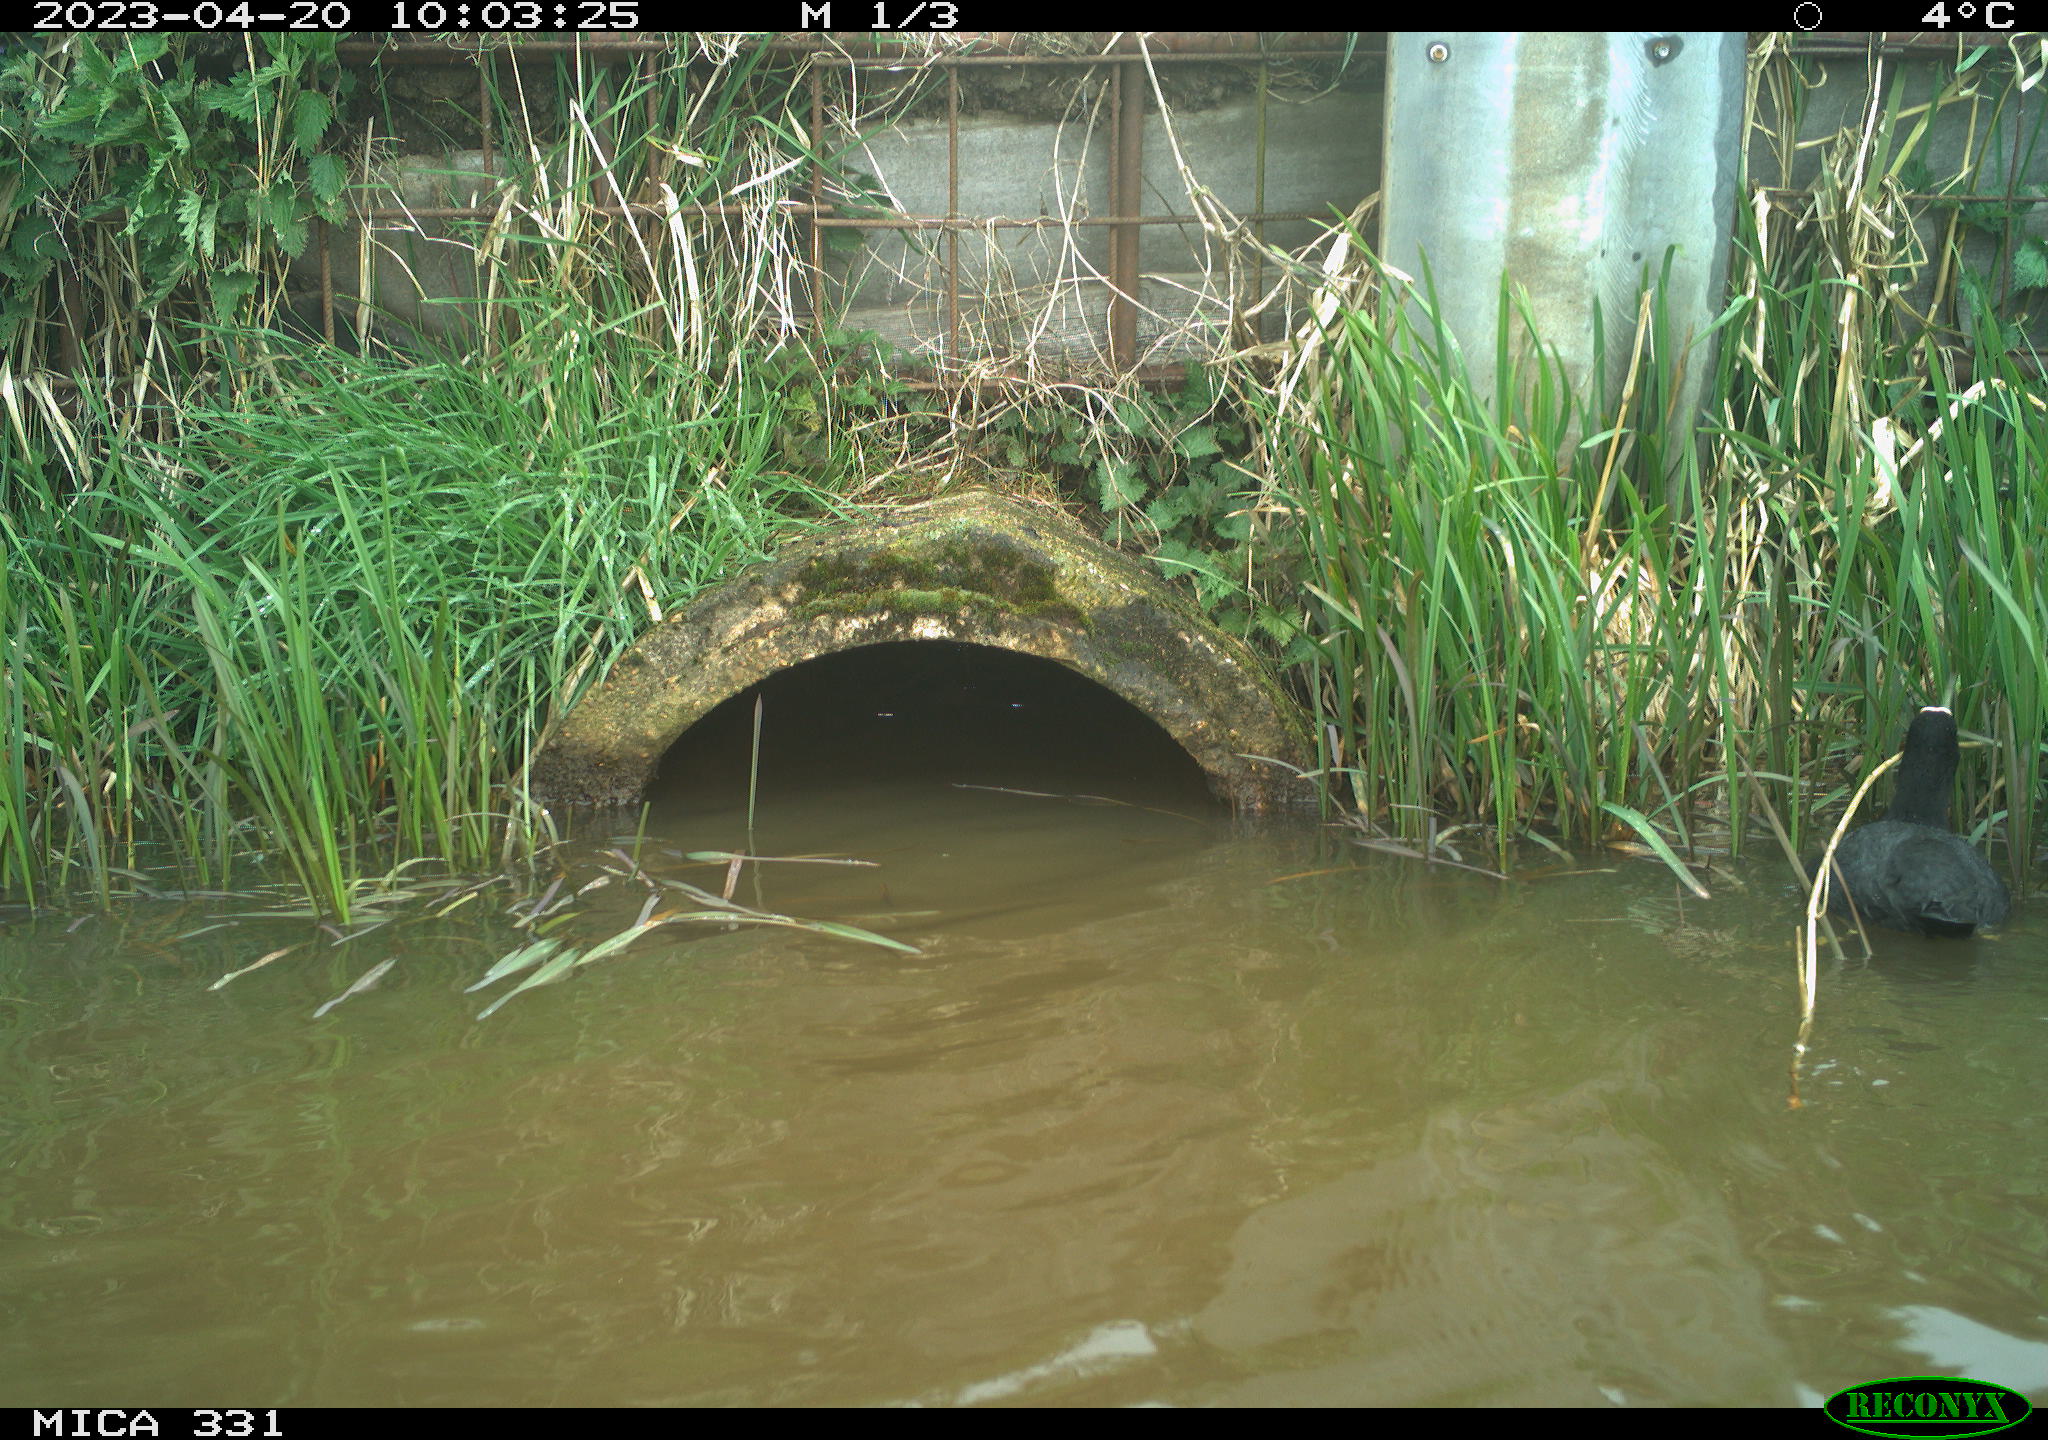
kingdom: Animalia
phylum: Chordata
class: Aves
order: Gruiformes
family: Rallidae
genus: Fulica
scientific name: Fulica atra
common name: Eurasian coot
